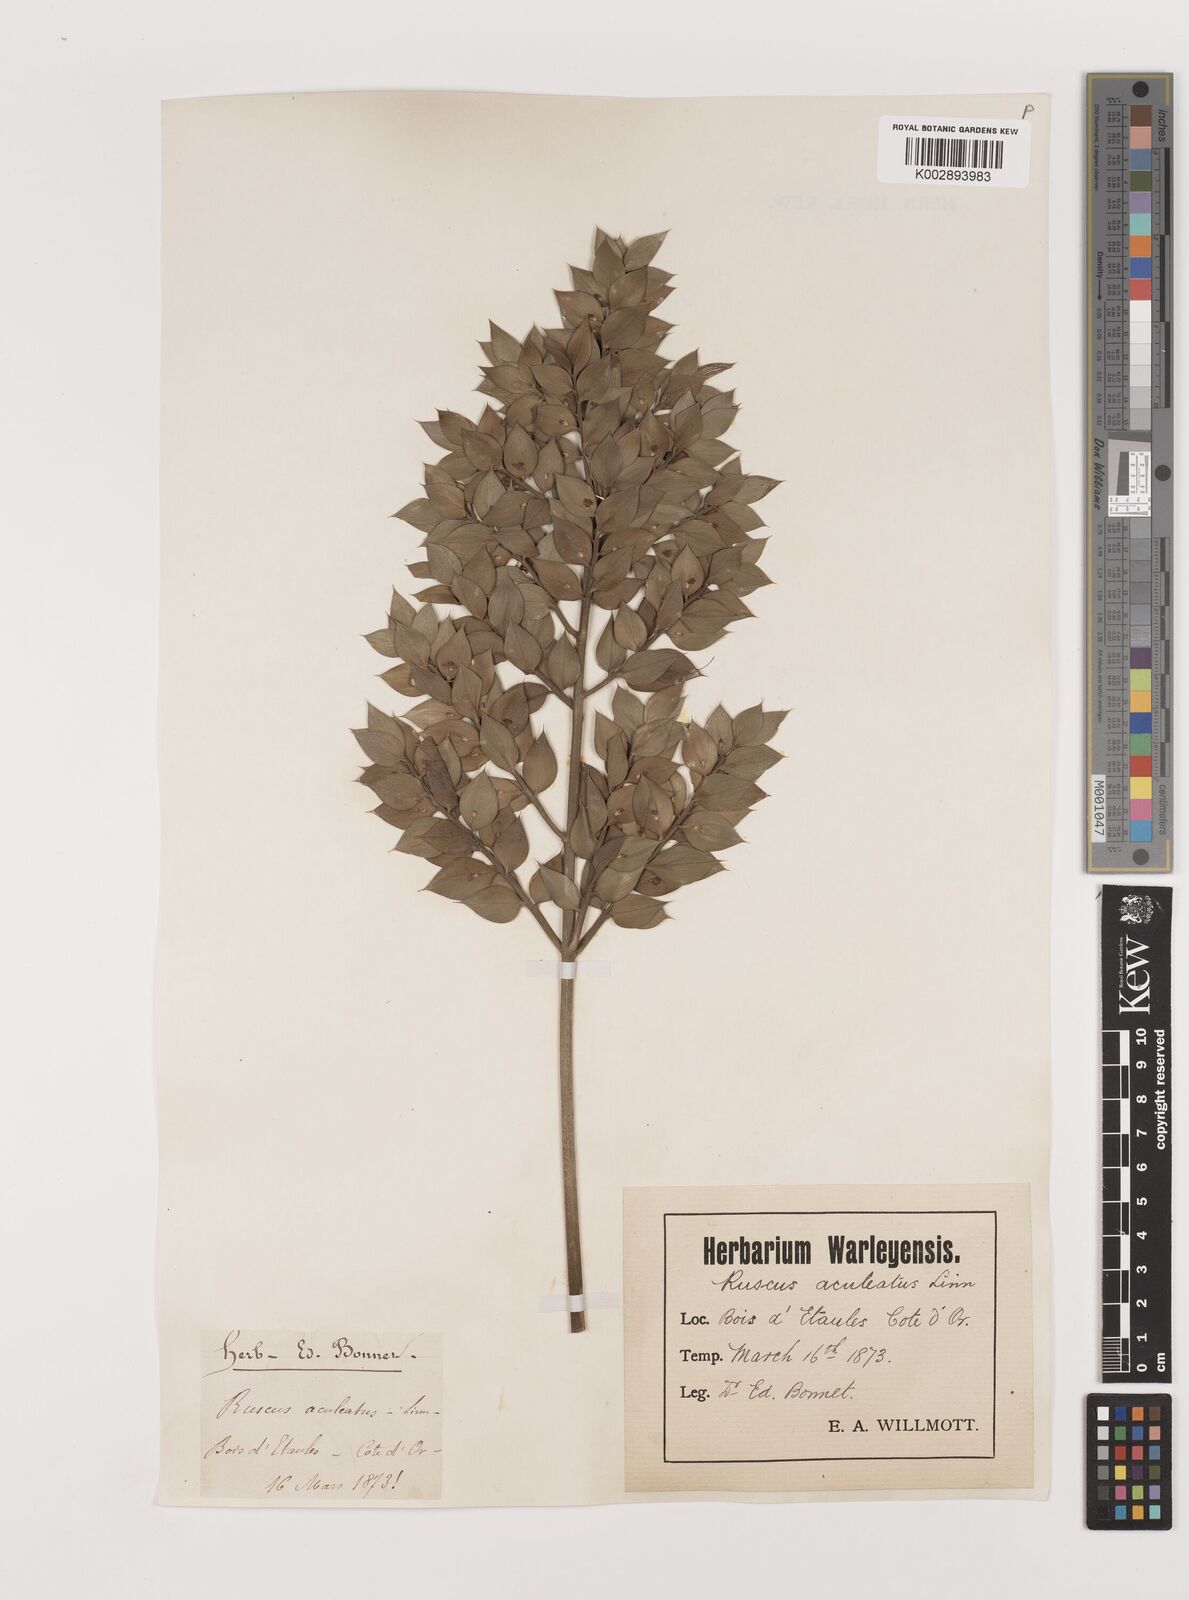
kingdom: Plantae
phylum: Tracheophyta
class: Liliopsida
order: Asparagales
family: Asparagaceae
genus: Ruscus
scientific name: Ruscus aculeatus
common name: Butcher's-broom
